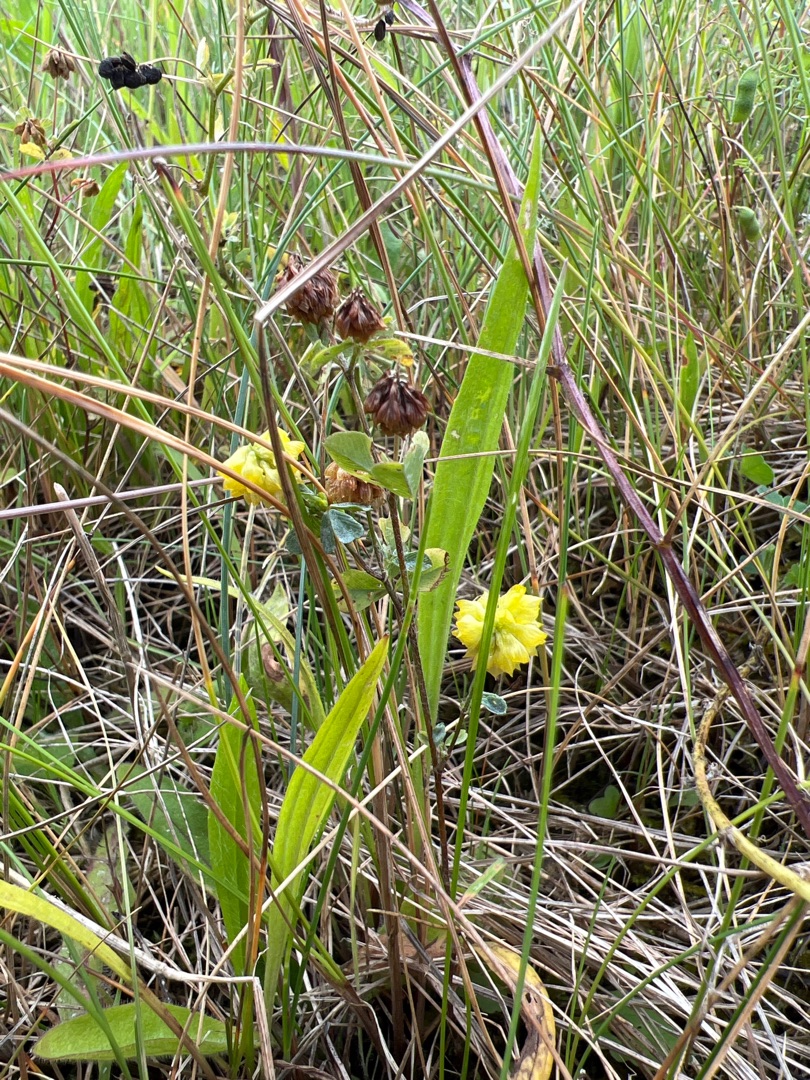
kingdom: Plantae
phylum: Tracheophyta
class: Magnoliopsida
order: Fabales
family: Fabaceae
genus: Trifolium
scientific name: Trifolium campestre
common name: Gul kløver
